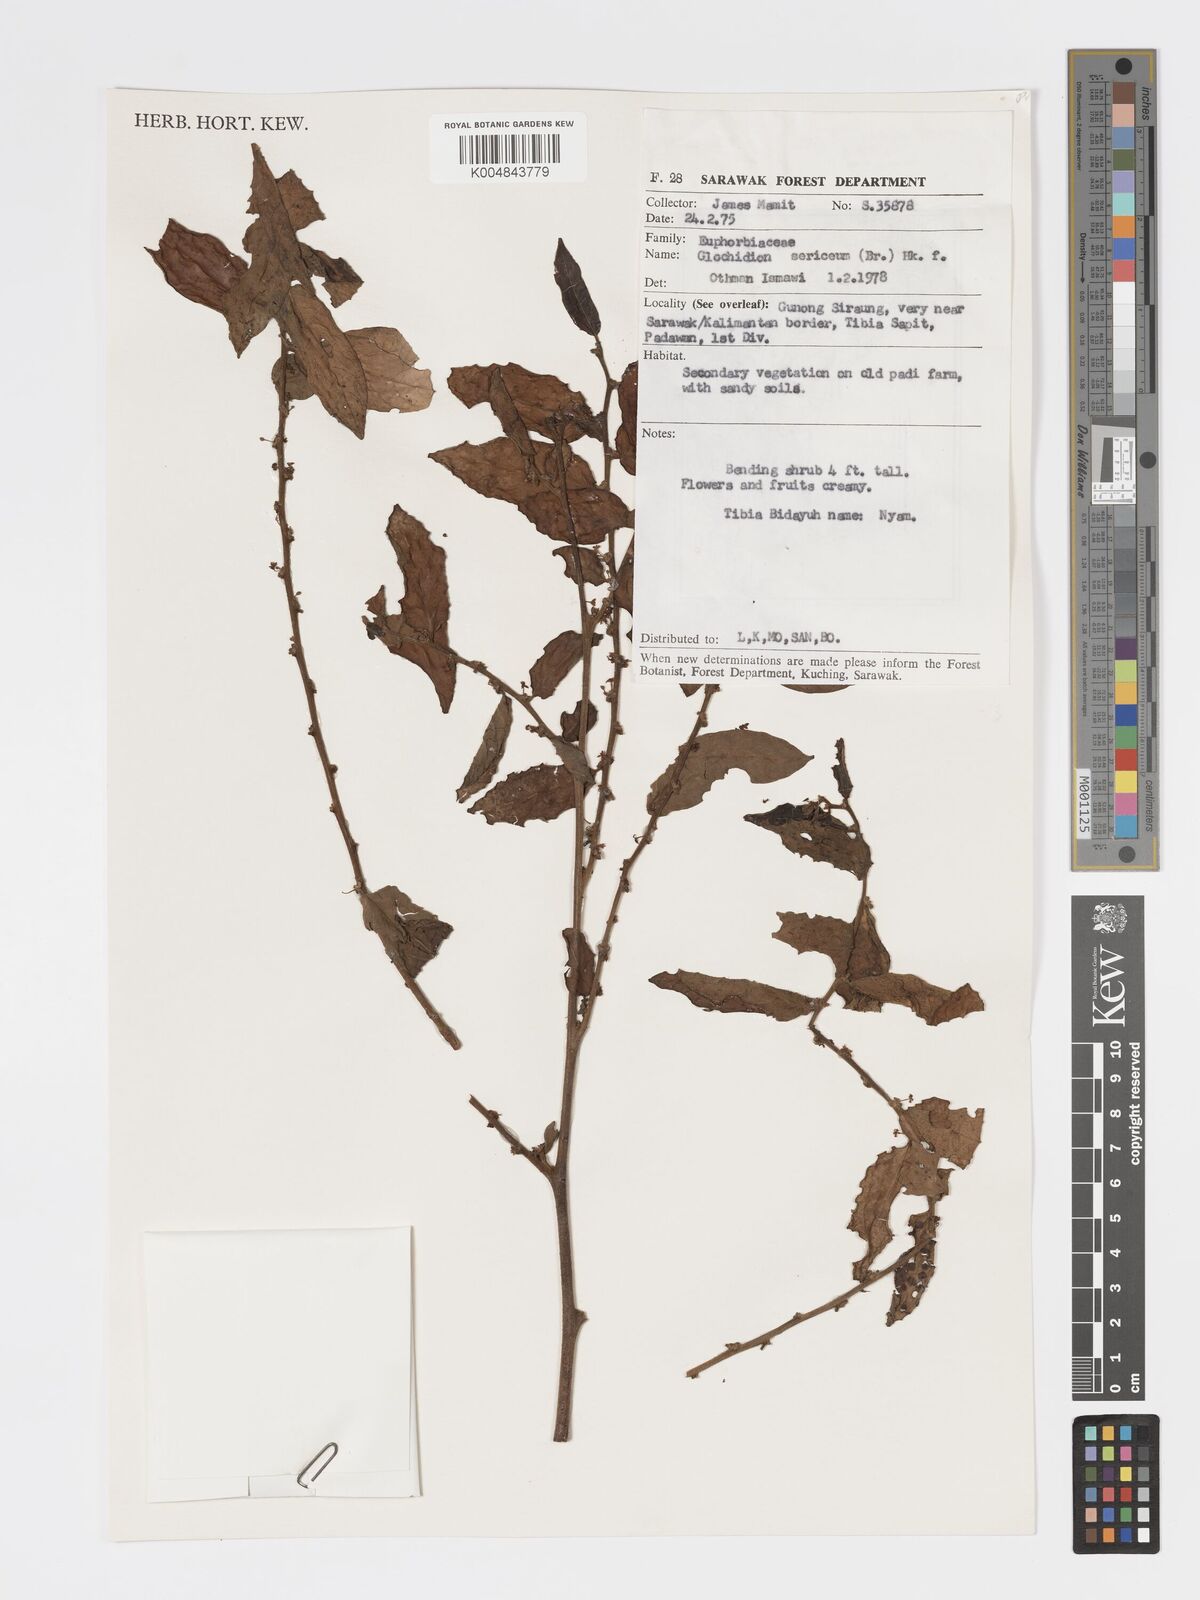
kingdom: Plantae
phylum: Tracheophyta
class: Magnoliopsida
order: Malpighiales
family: Phyllanthaceae
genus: Glochidion
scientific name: Glochidion sericeum
